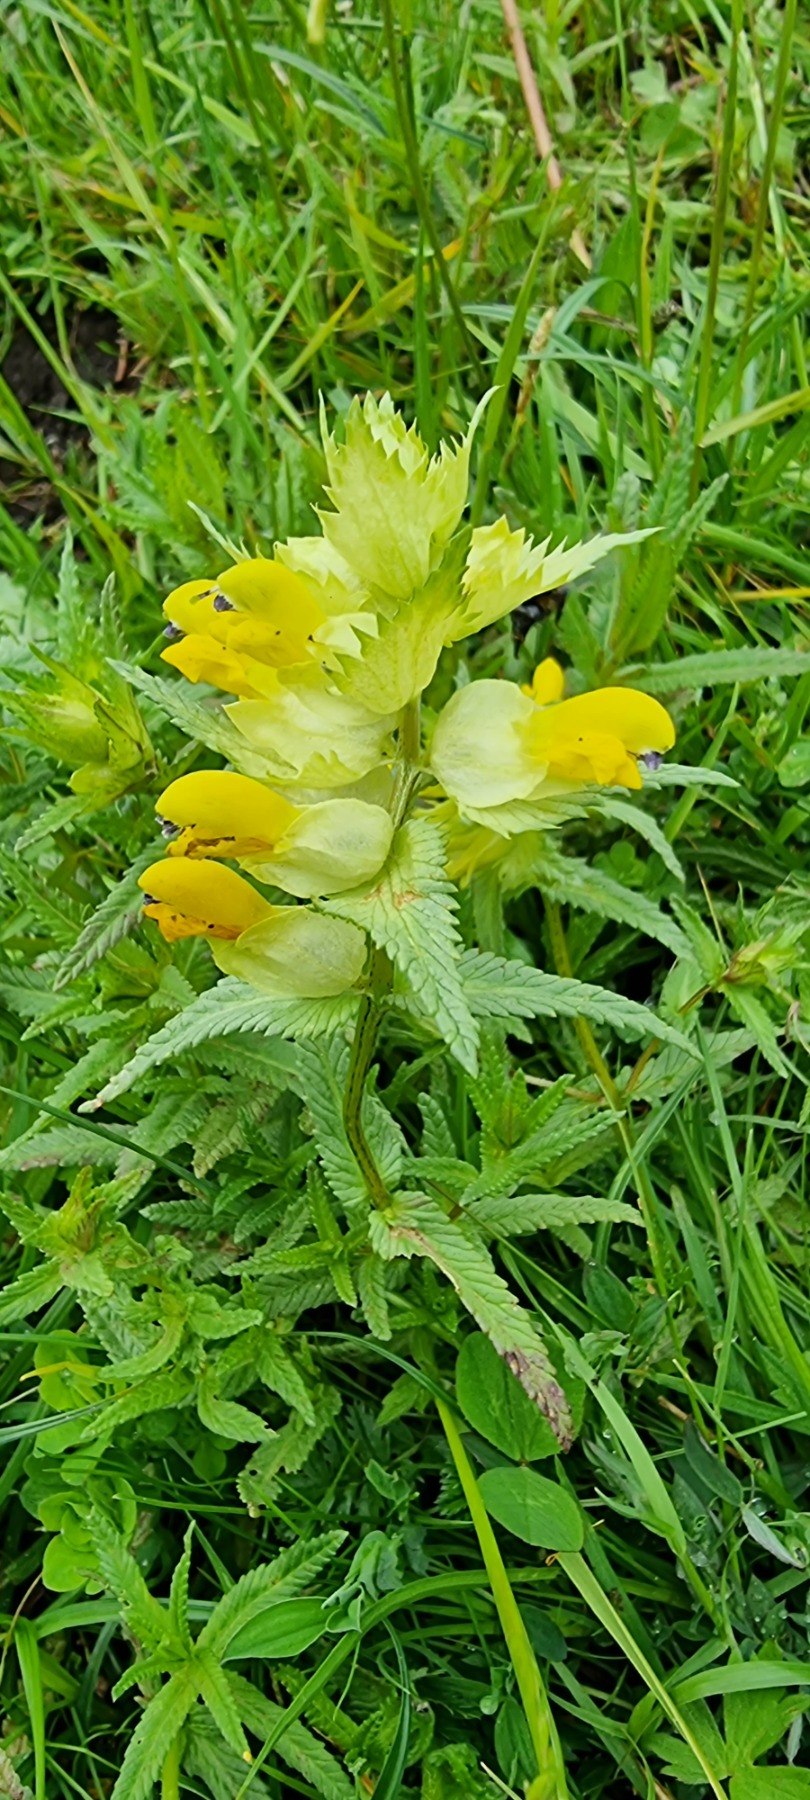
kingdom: Plantae
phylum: Tracheophyta
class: Magnoliopsida
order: Lamiales
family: Orobanchaceae
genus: Rhinanthus
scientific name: Rhinanthus
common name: Stor skjaller
